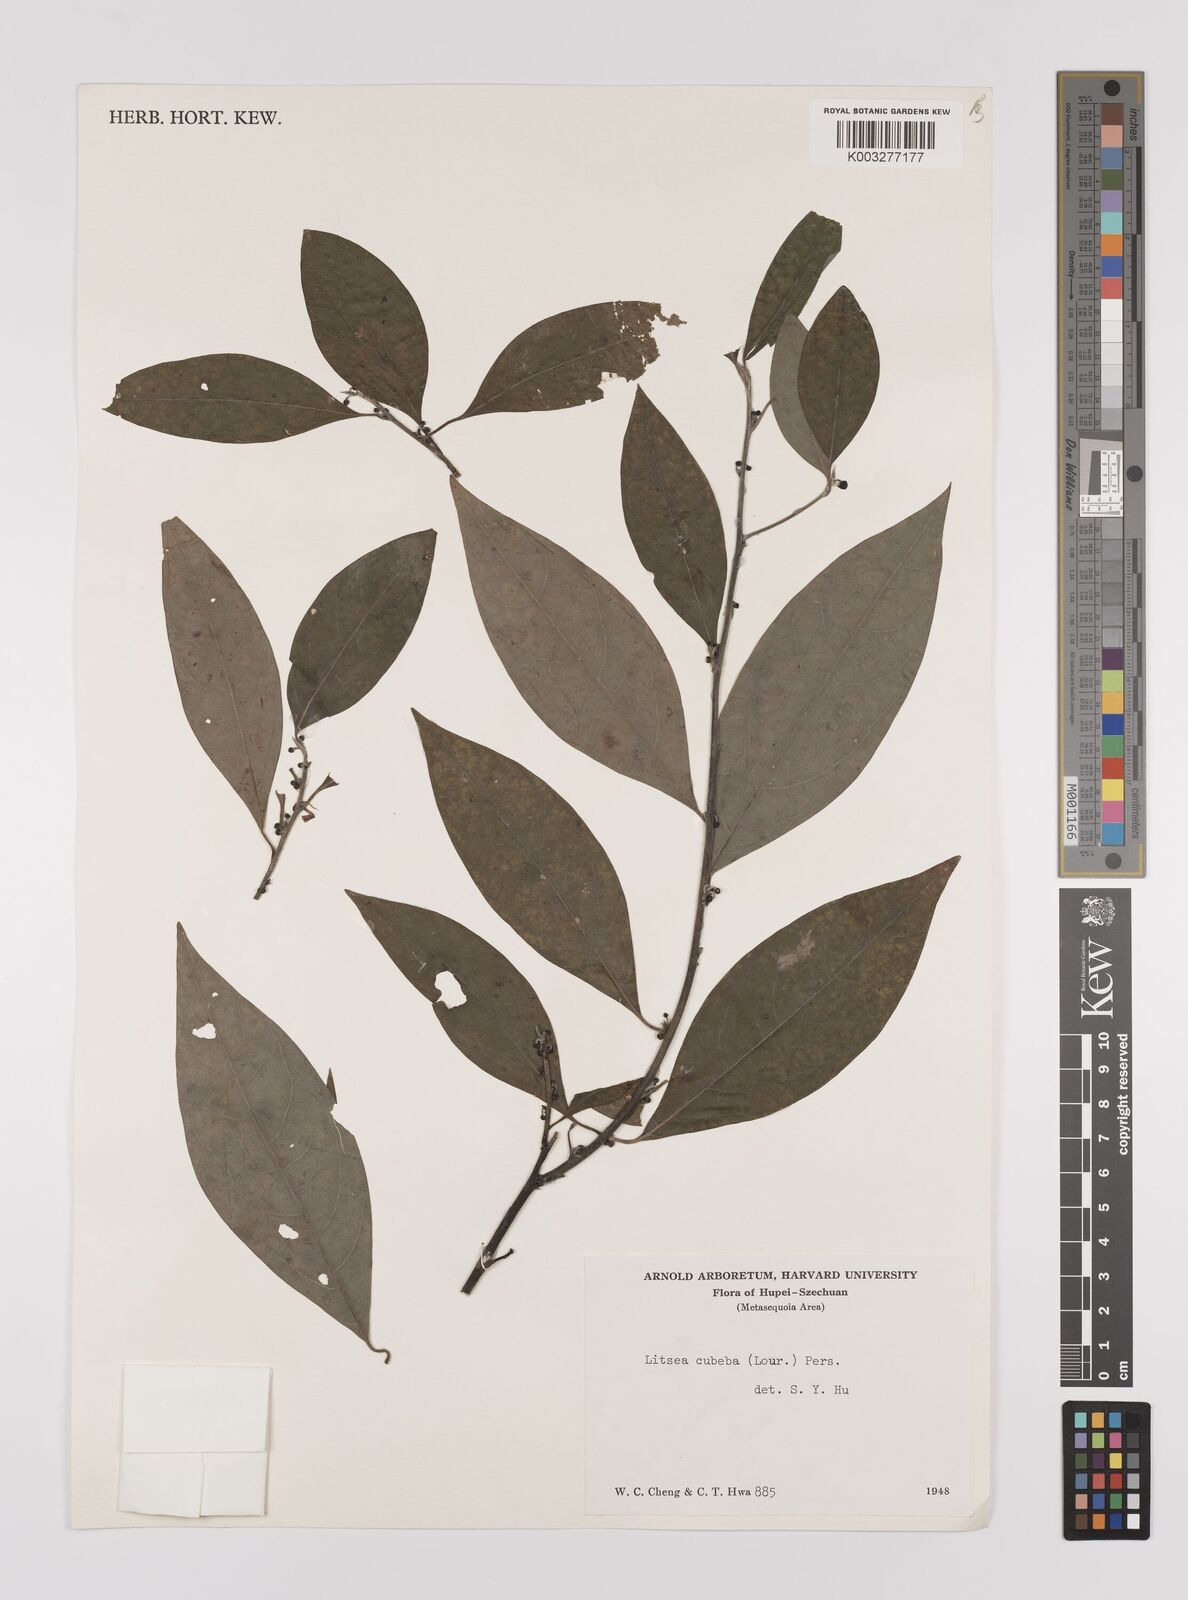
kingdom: Plantae
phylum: Tracheophyta
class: Magnoliopsida
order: Laurales
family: Lauraceae
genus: Litsea
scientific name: Litsea cubeba
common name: Mountain-pepper
